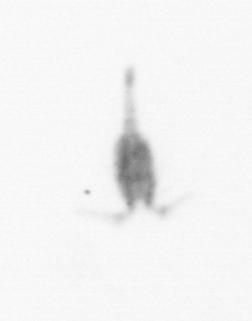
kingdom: Animalia
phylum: Arthropoda
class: Copepoda
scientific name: Copepoda
